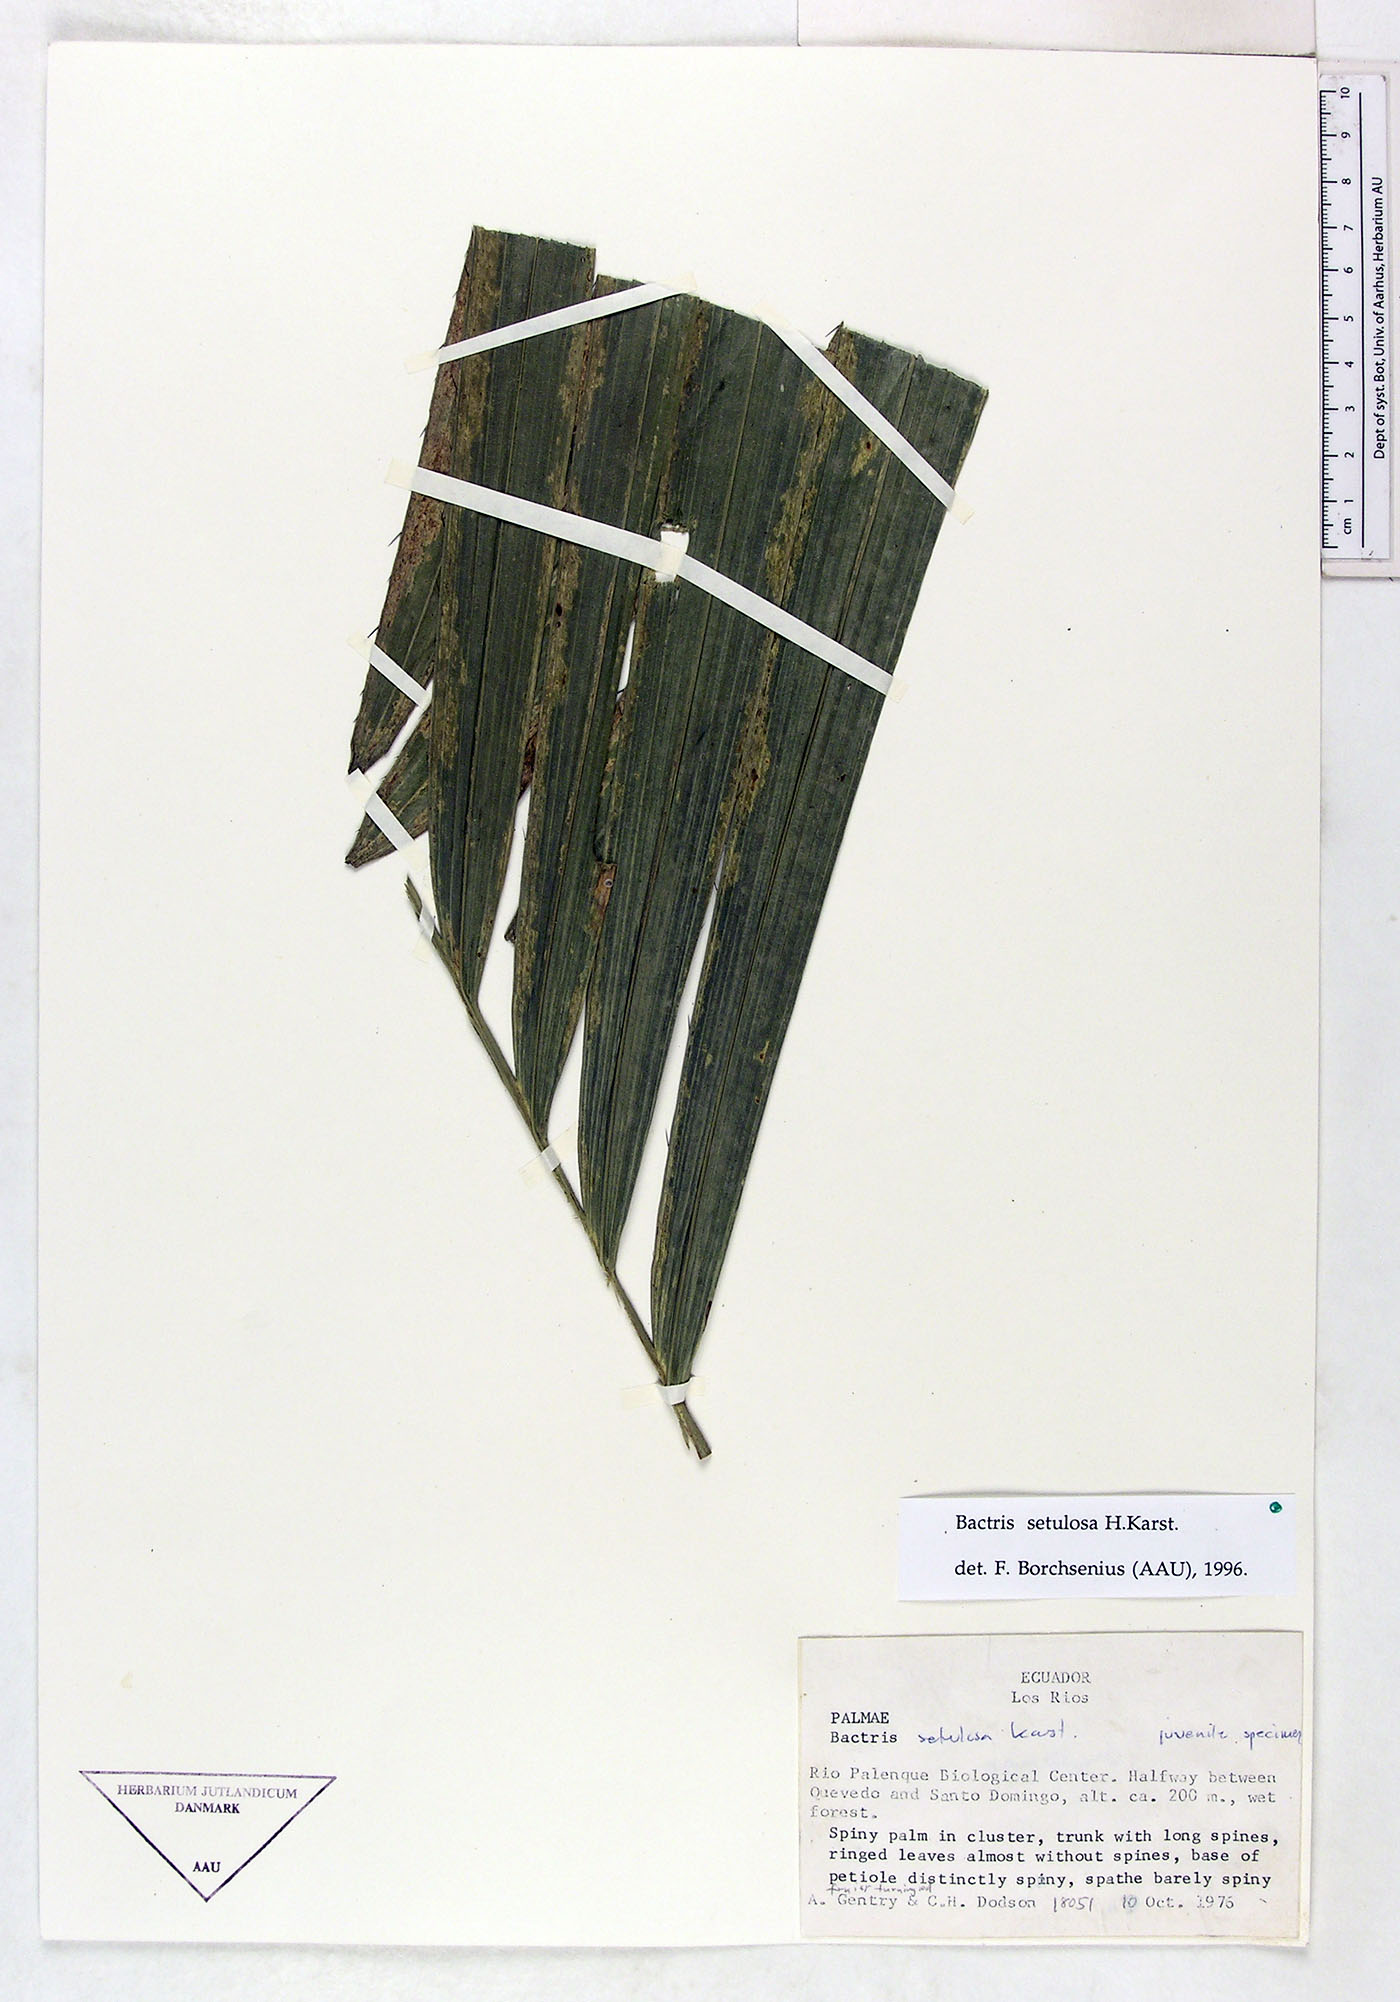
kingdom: Plantae
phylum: Tracheophyta
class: Liliopsida
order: Arecales
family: Arecaceae
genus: Bactris
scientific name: Bactris setulosa
